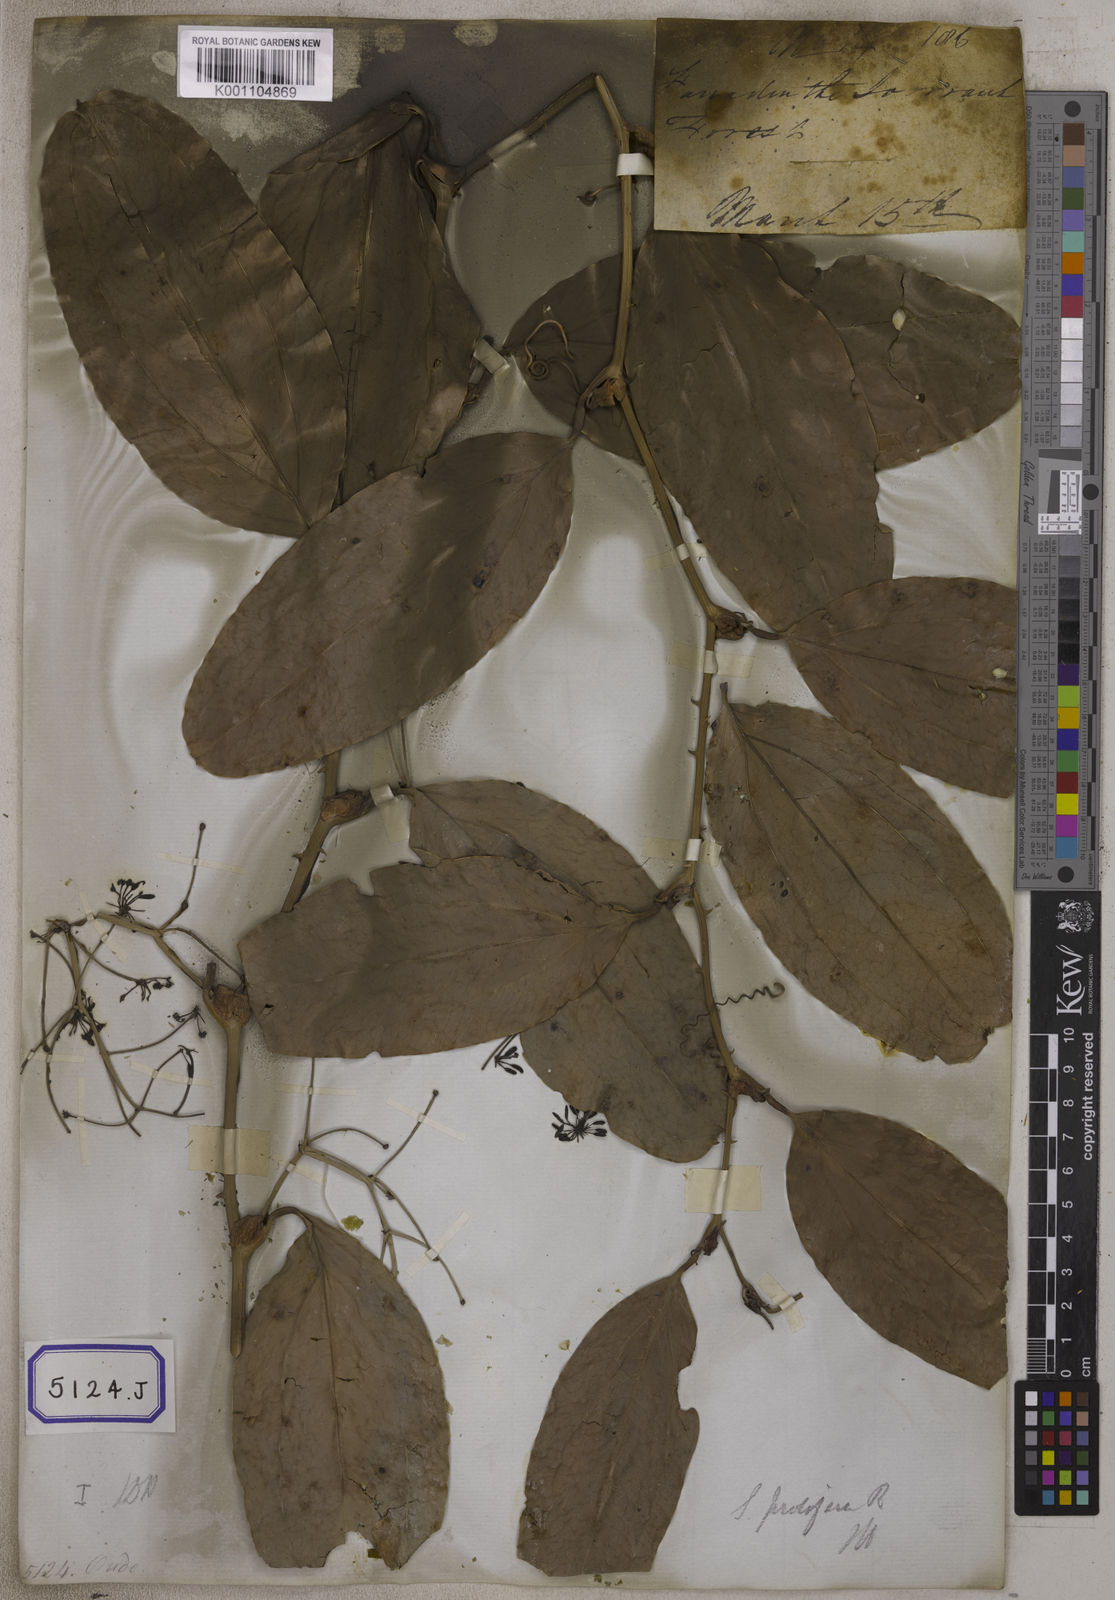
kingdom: Plantae
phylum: Tracheophyta
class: Liliopsida
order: Liliales
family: Smilacaceae
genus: Smilax
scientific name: Smilax prolifera
